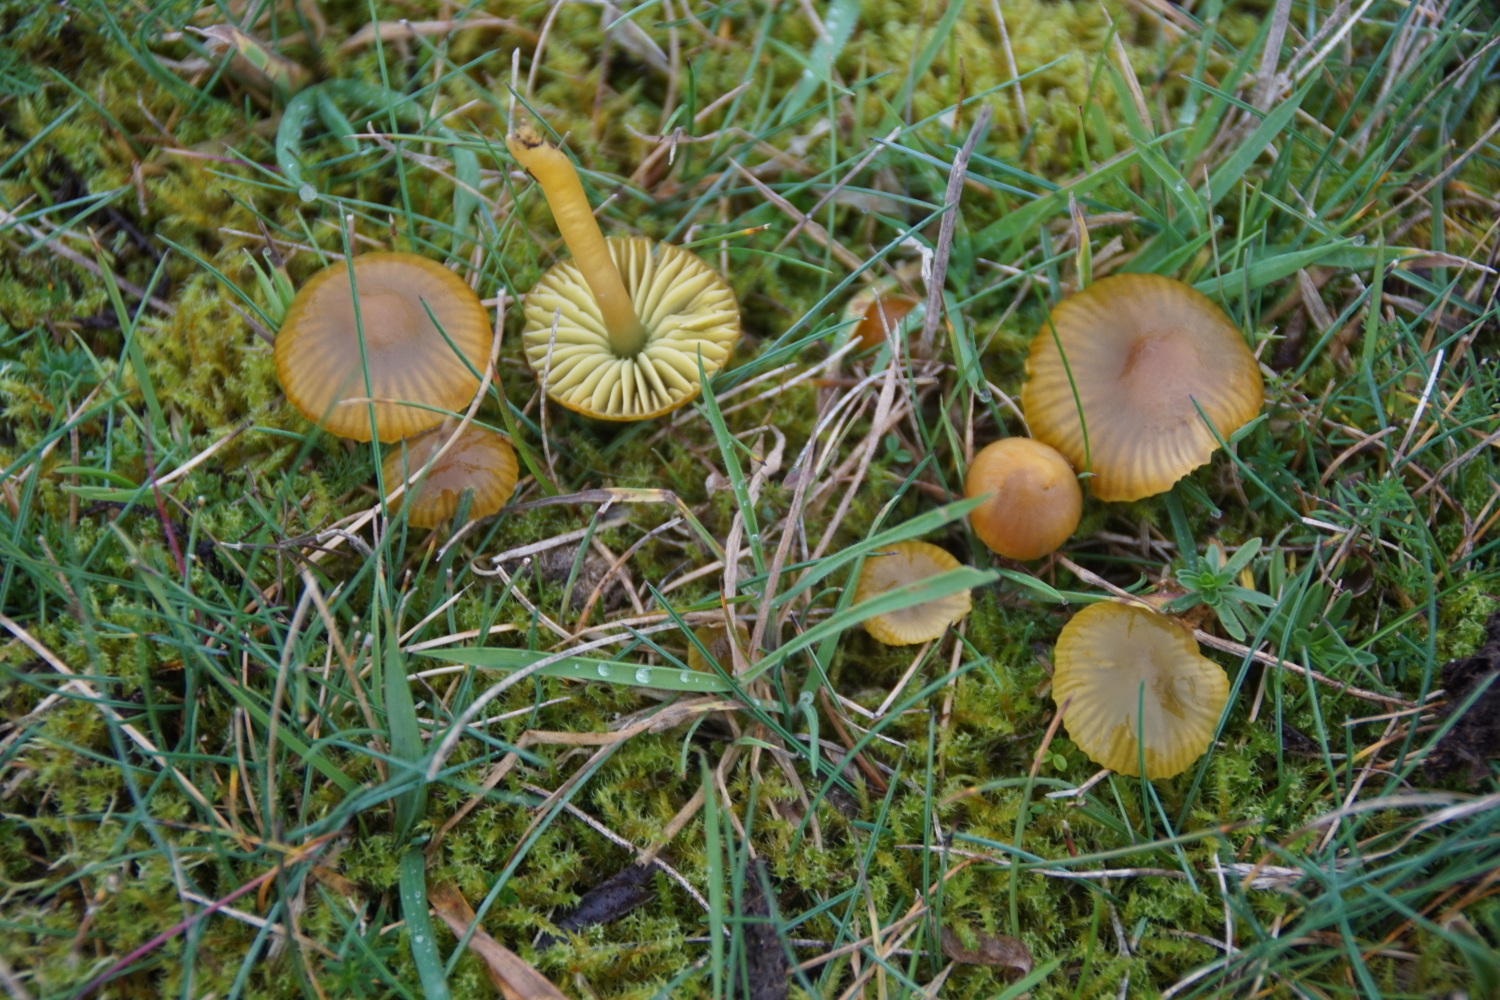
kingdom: Fungi
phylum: Basidiomycota
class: Agaricomycetes
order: Agaricales
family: Hygrophoraceae
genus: Gliophorus
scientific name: Gliophorus psittacinus
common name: papegøje-vokshat
